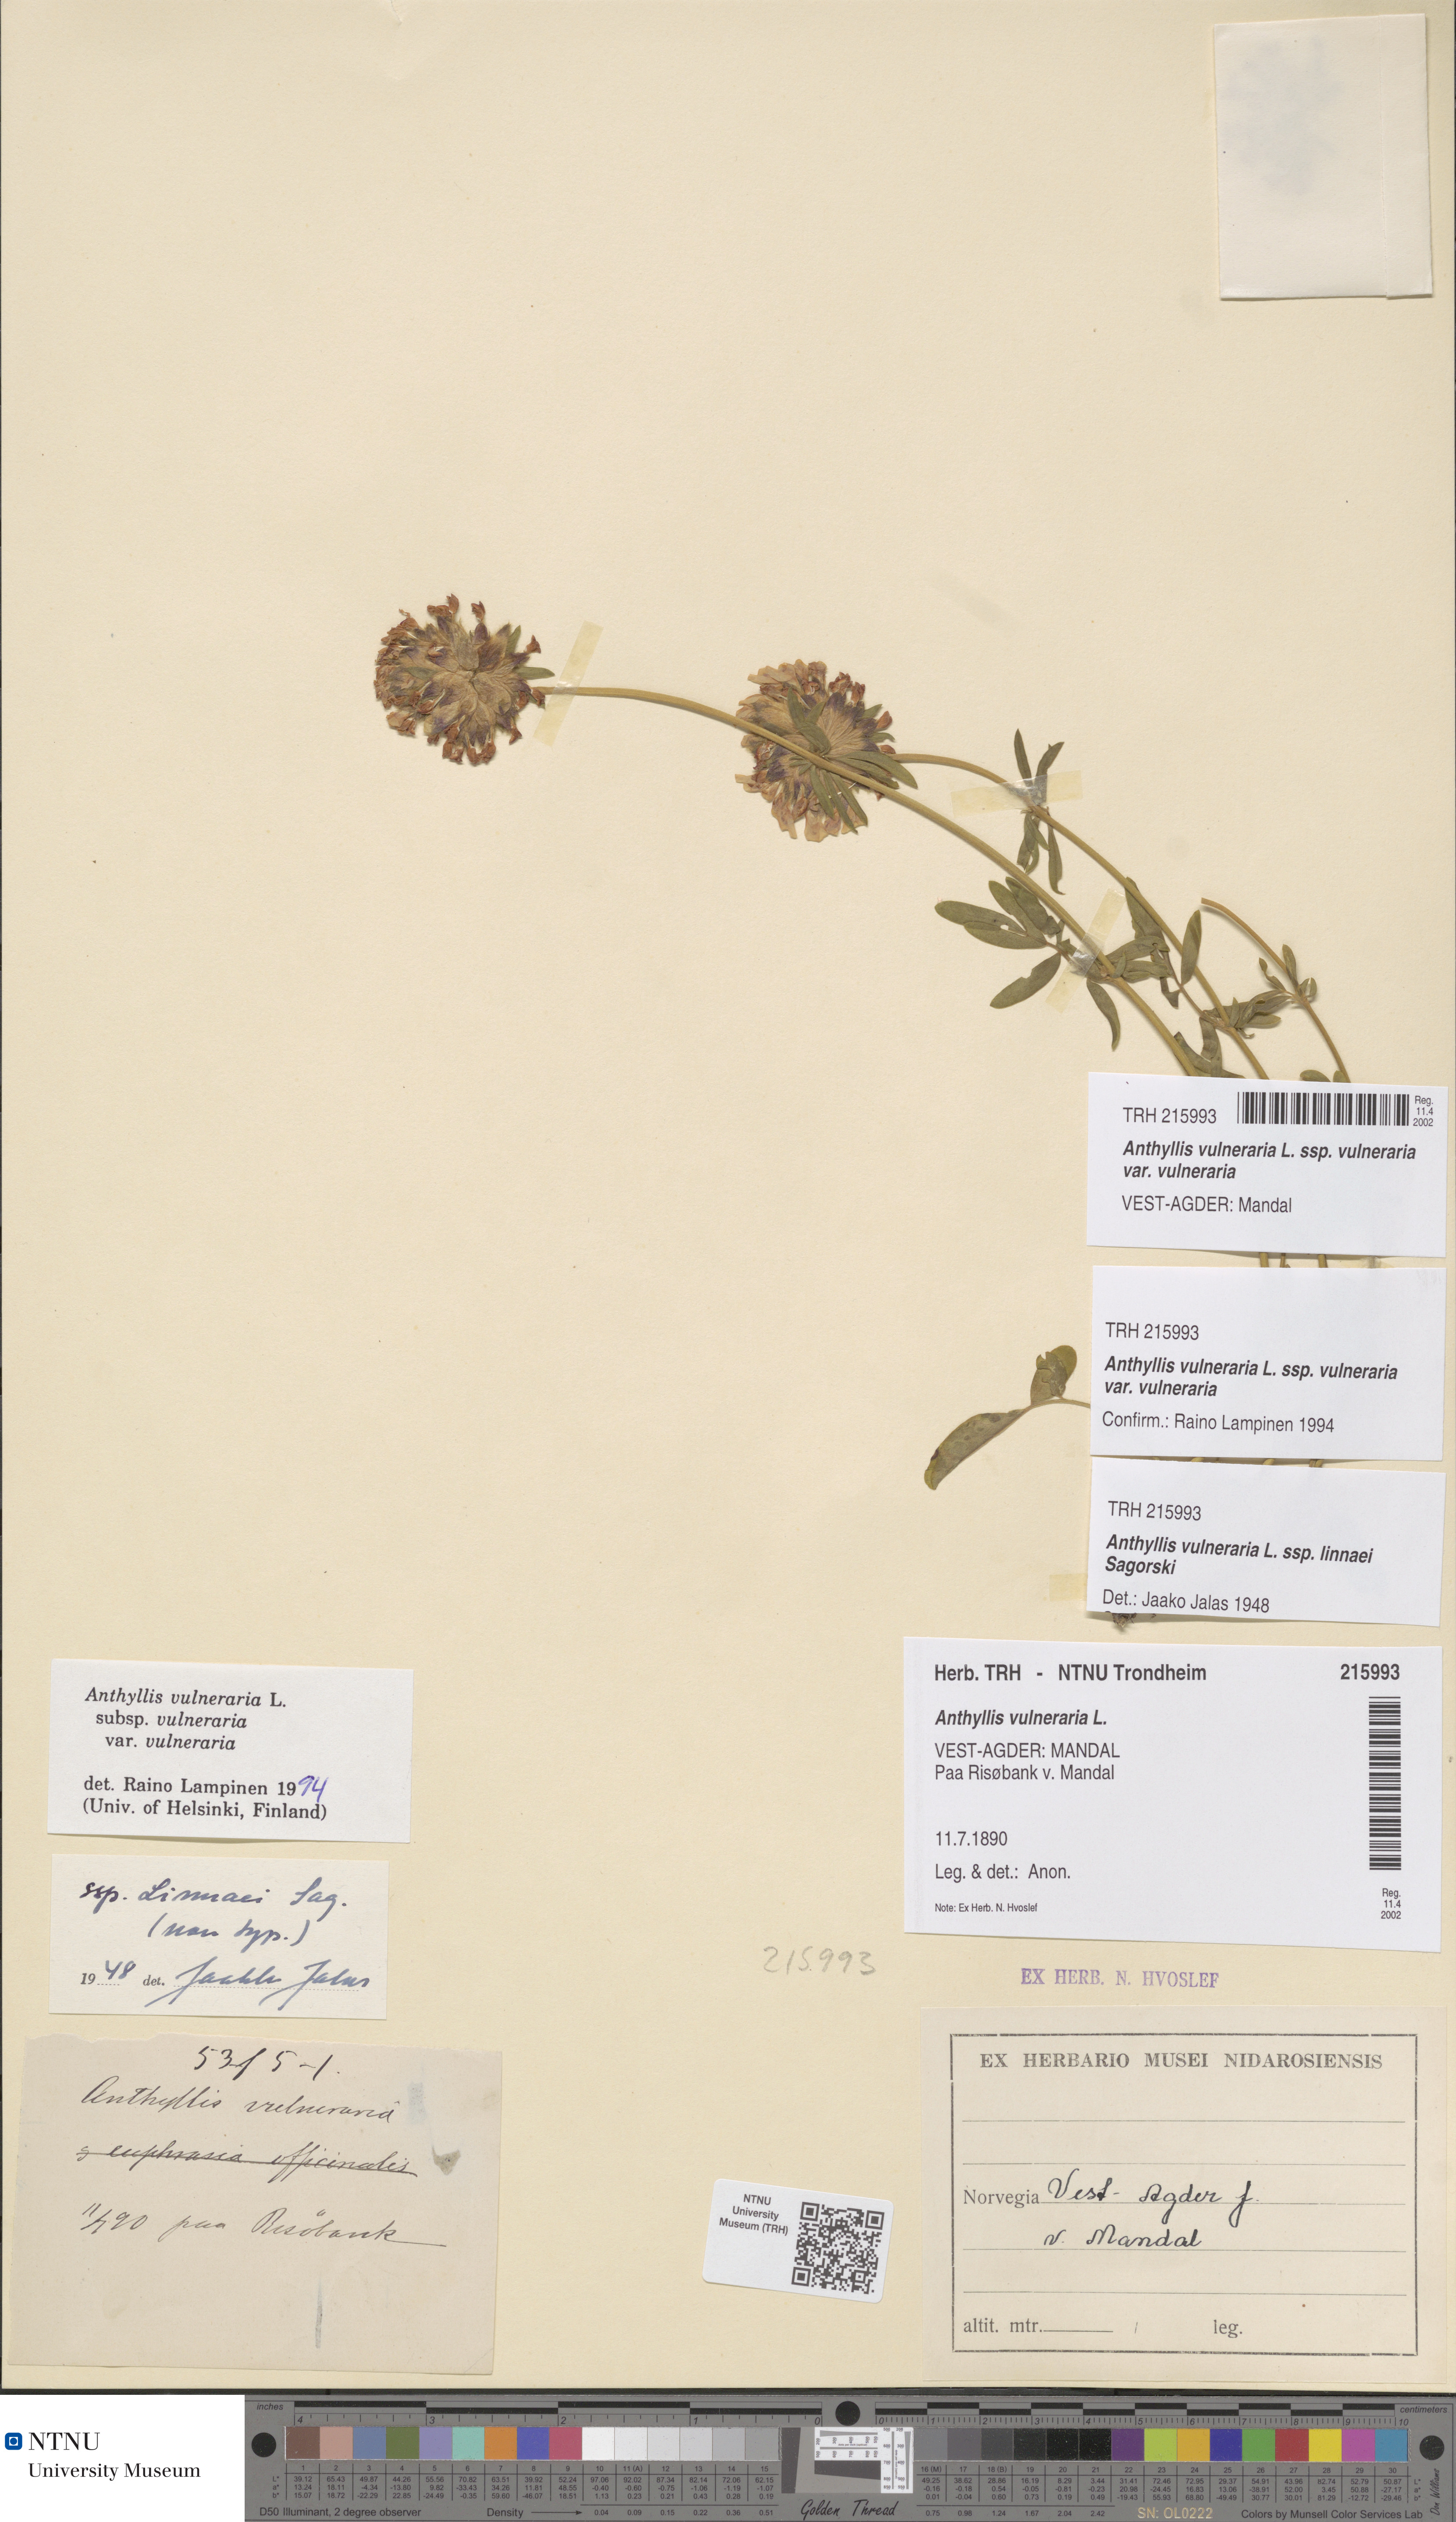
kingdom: Plantae
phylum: Tracheophyta
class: Magnoliopsida
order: Fabales
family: Fabaceae
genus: Anthyllis
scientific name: Anthyllis vulneraria
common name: Kidney vetch
